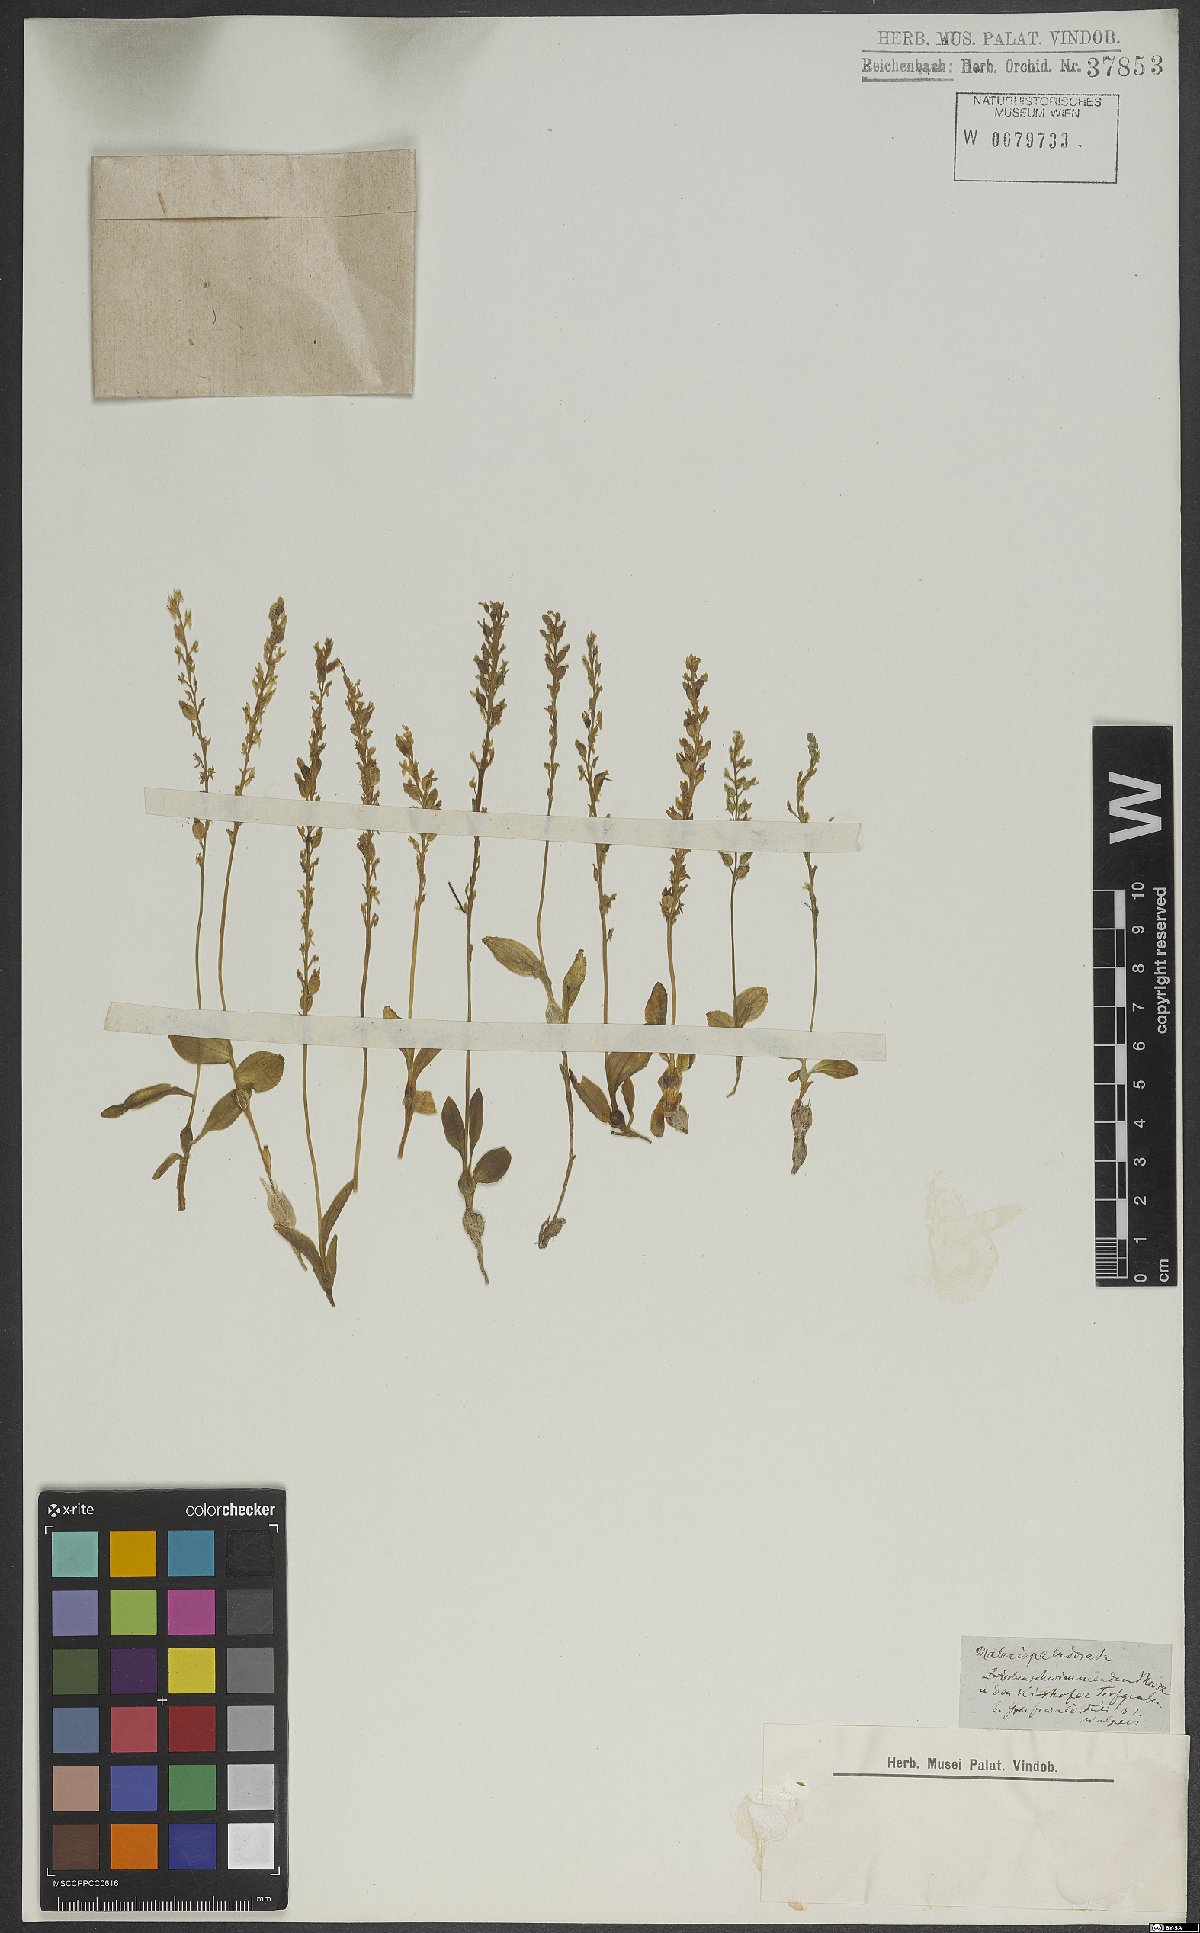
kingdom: Plantae
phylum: Tracheophyta
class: Liliopsida
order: Asparagales
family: Orchidaceae
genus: Hammarbya
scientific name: Hammarbya paludosa
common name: Bog orchid
